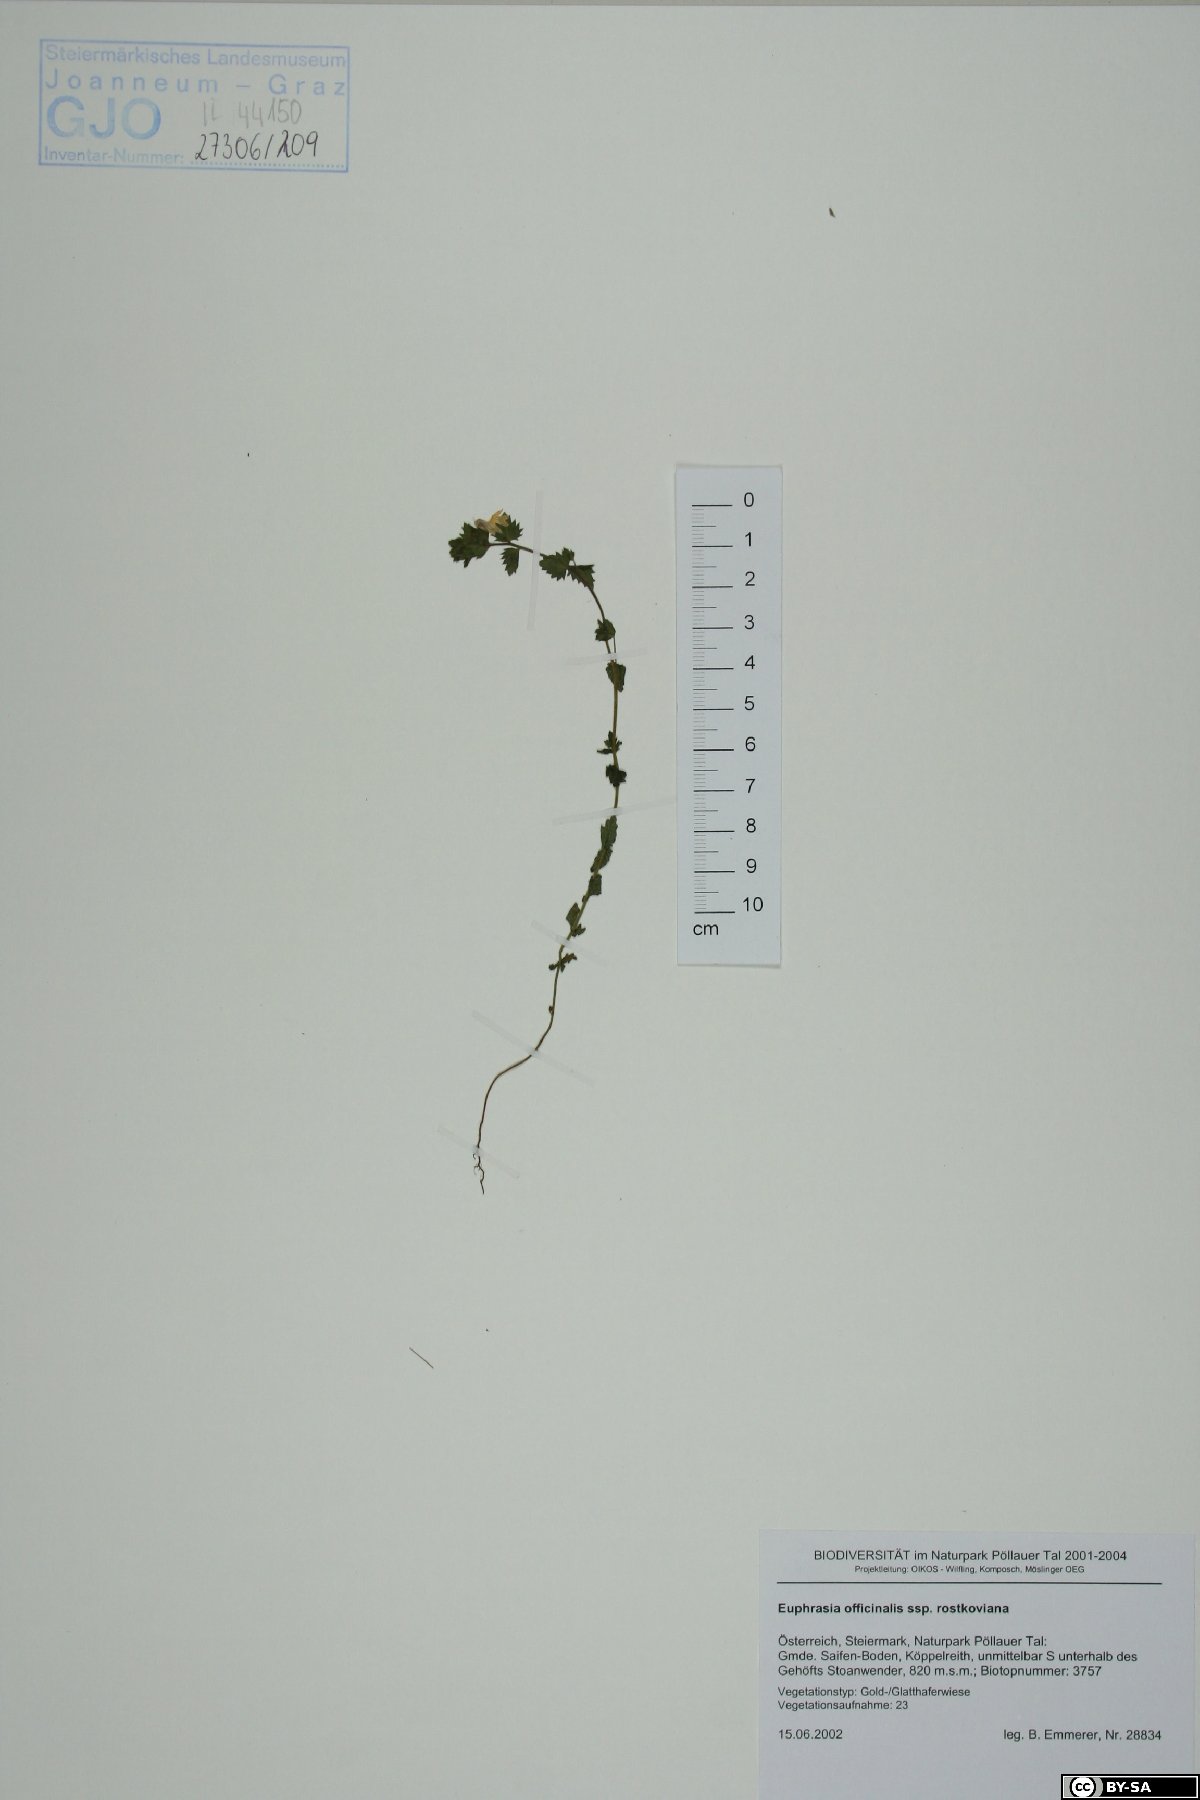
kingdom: Plantae
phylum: Tracheophyta
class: Magnoliopsida
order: Lamiales
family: Orobanchaceae
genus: Euphrasia
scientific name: Euphrasia officinalis
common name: Eyebright
